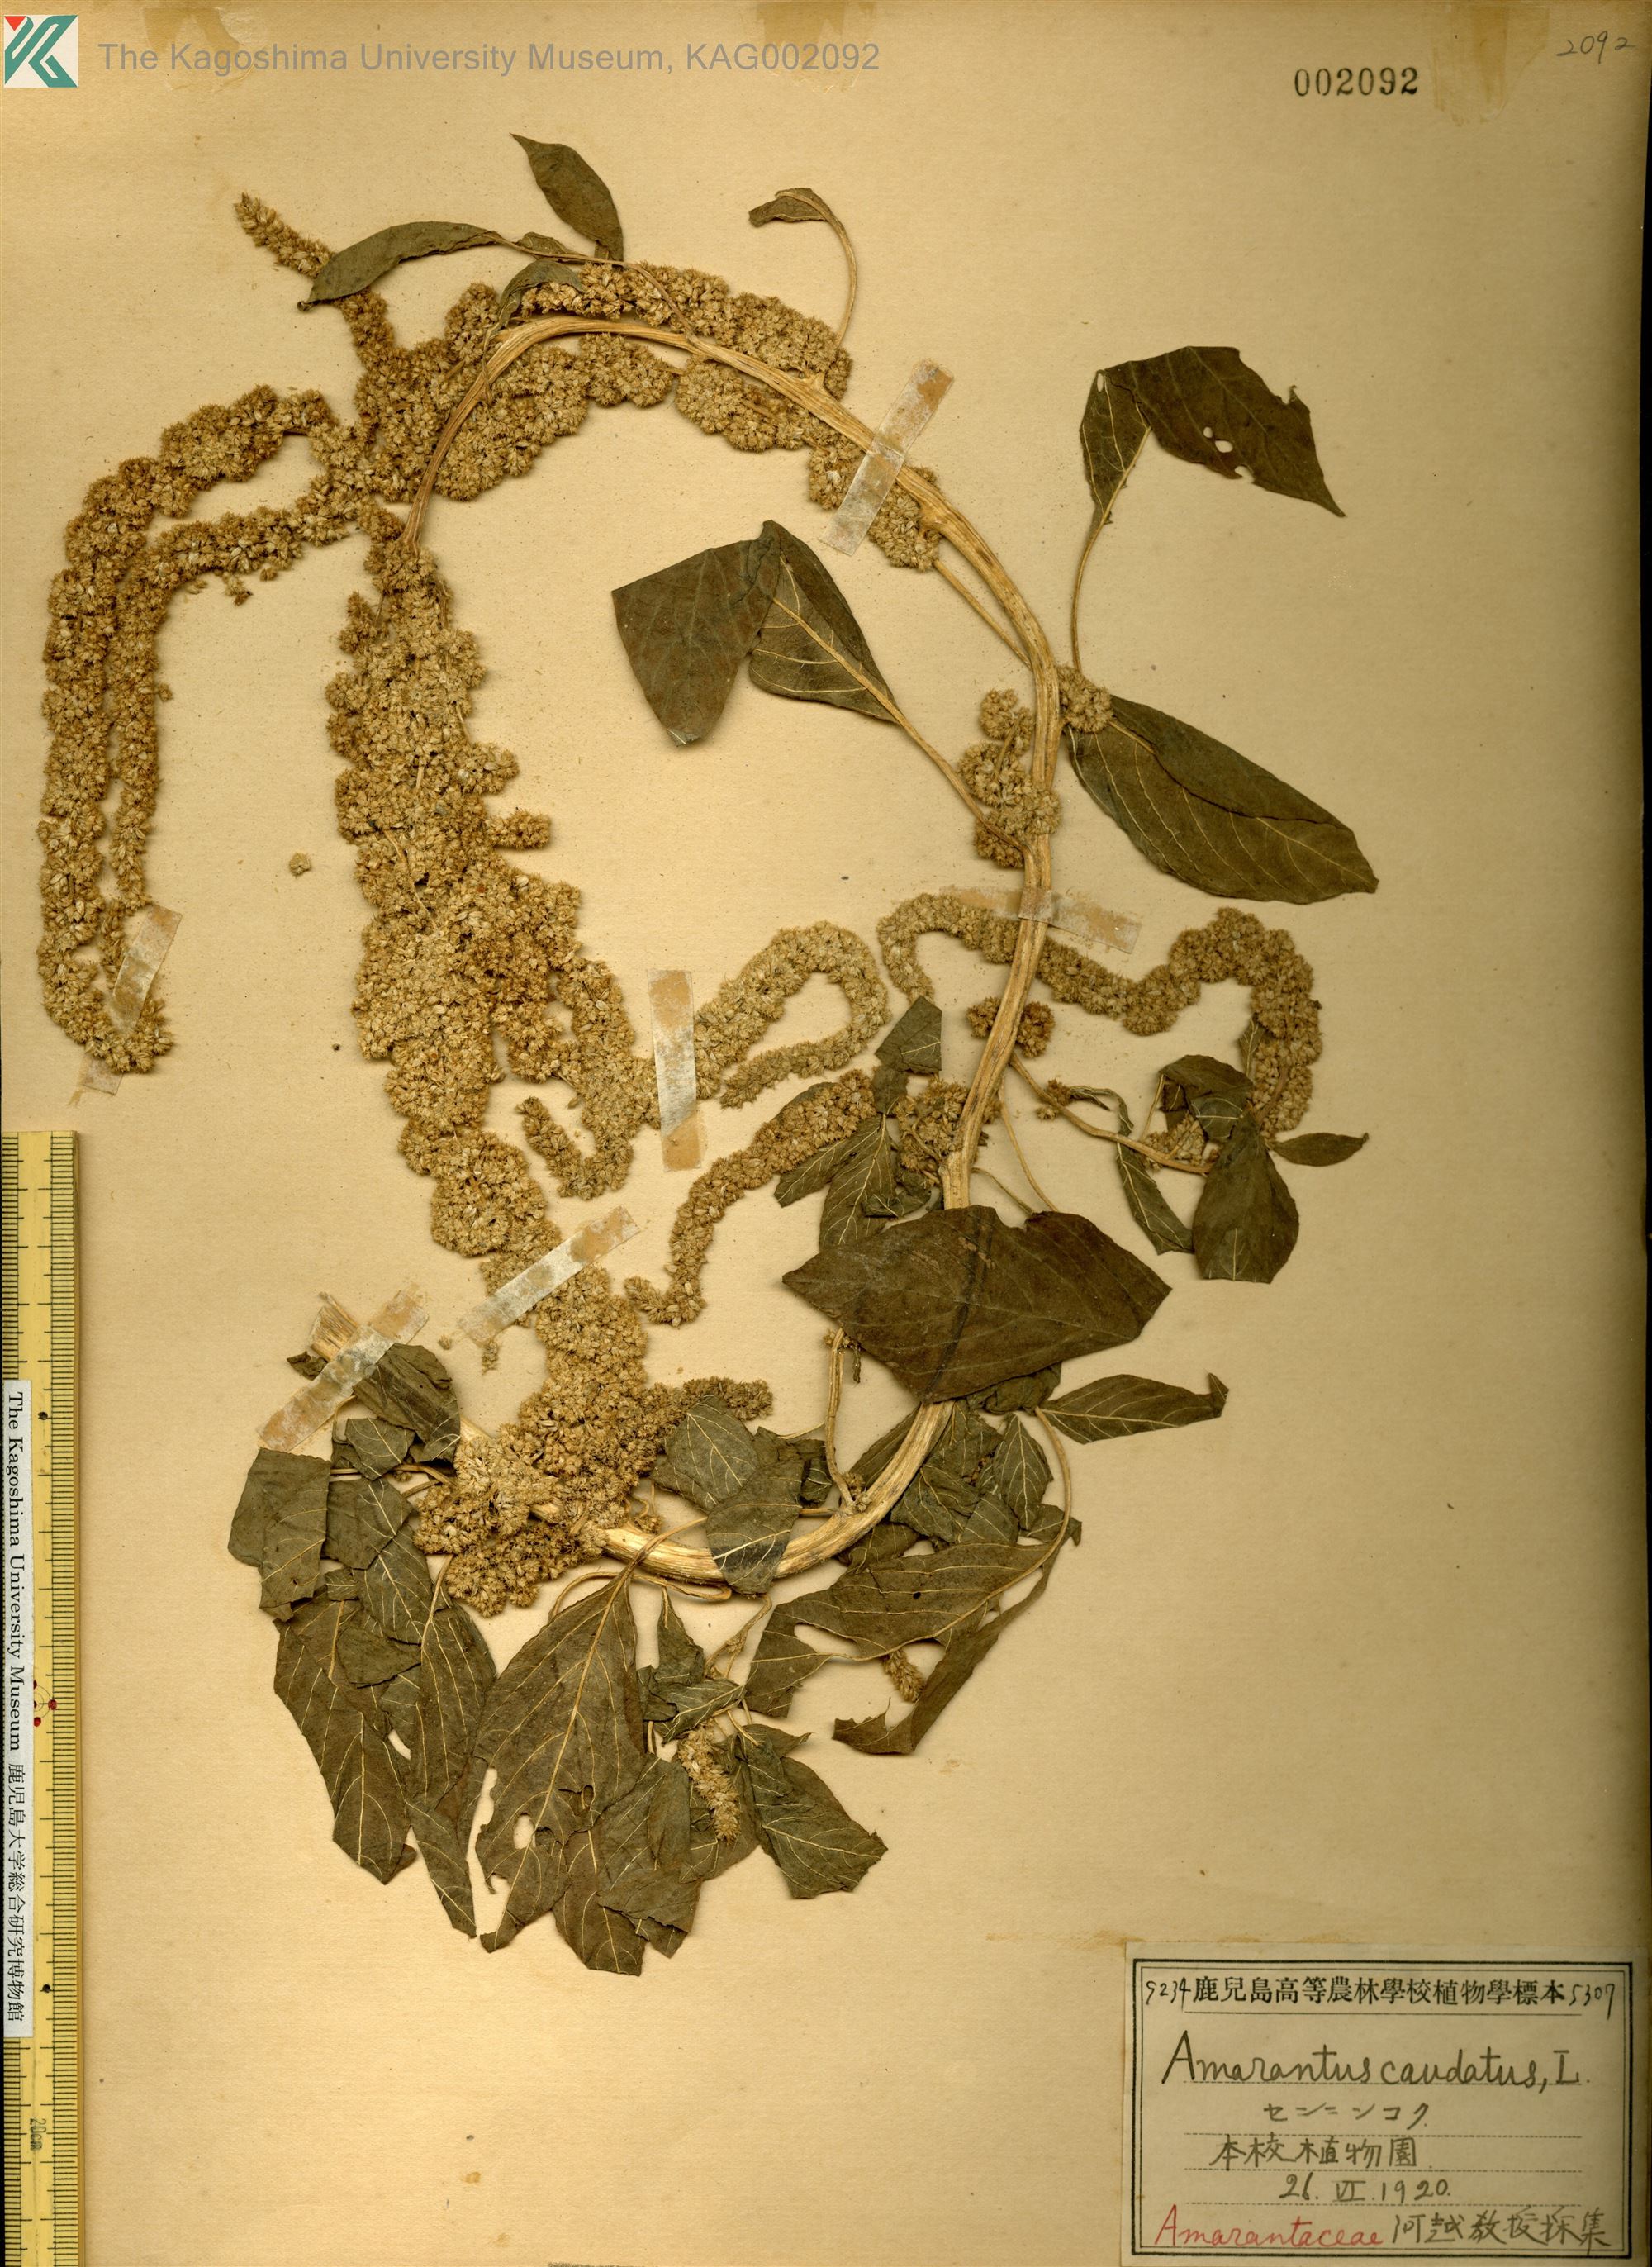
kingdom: Plantae
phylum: Tracheophyta
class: Magnoliopsida
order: Caryophyllales
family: Amaranthaceae
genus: Amaranthus
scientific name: Amaranthus caudatus
